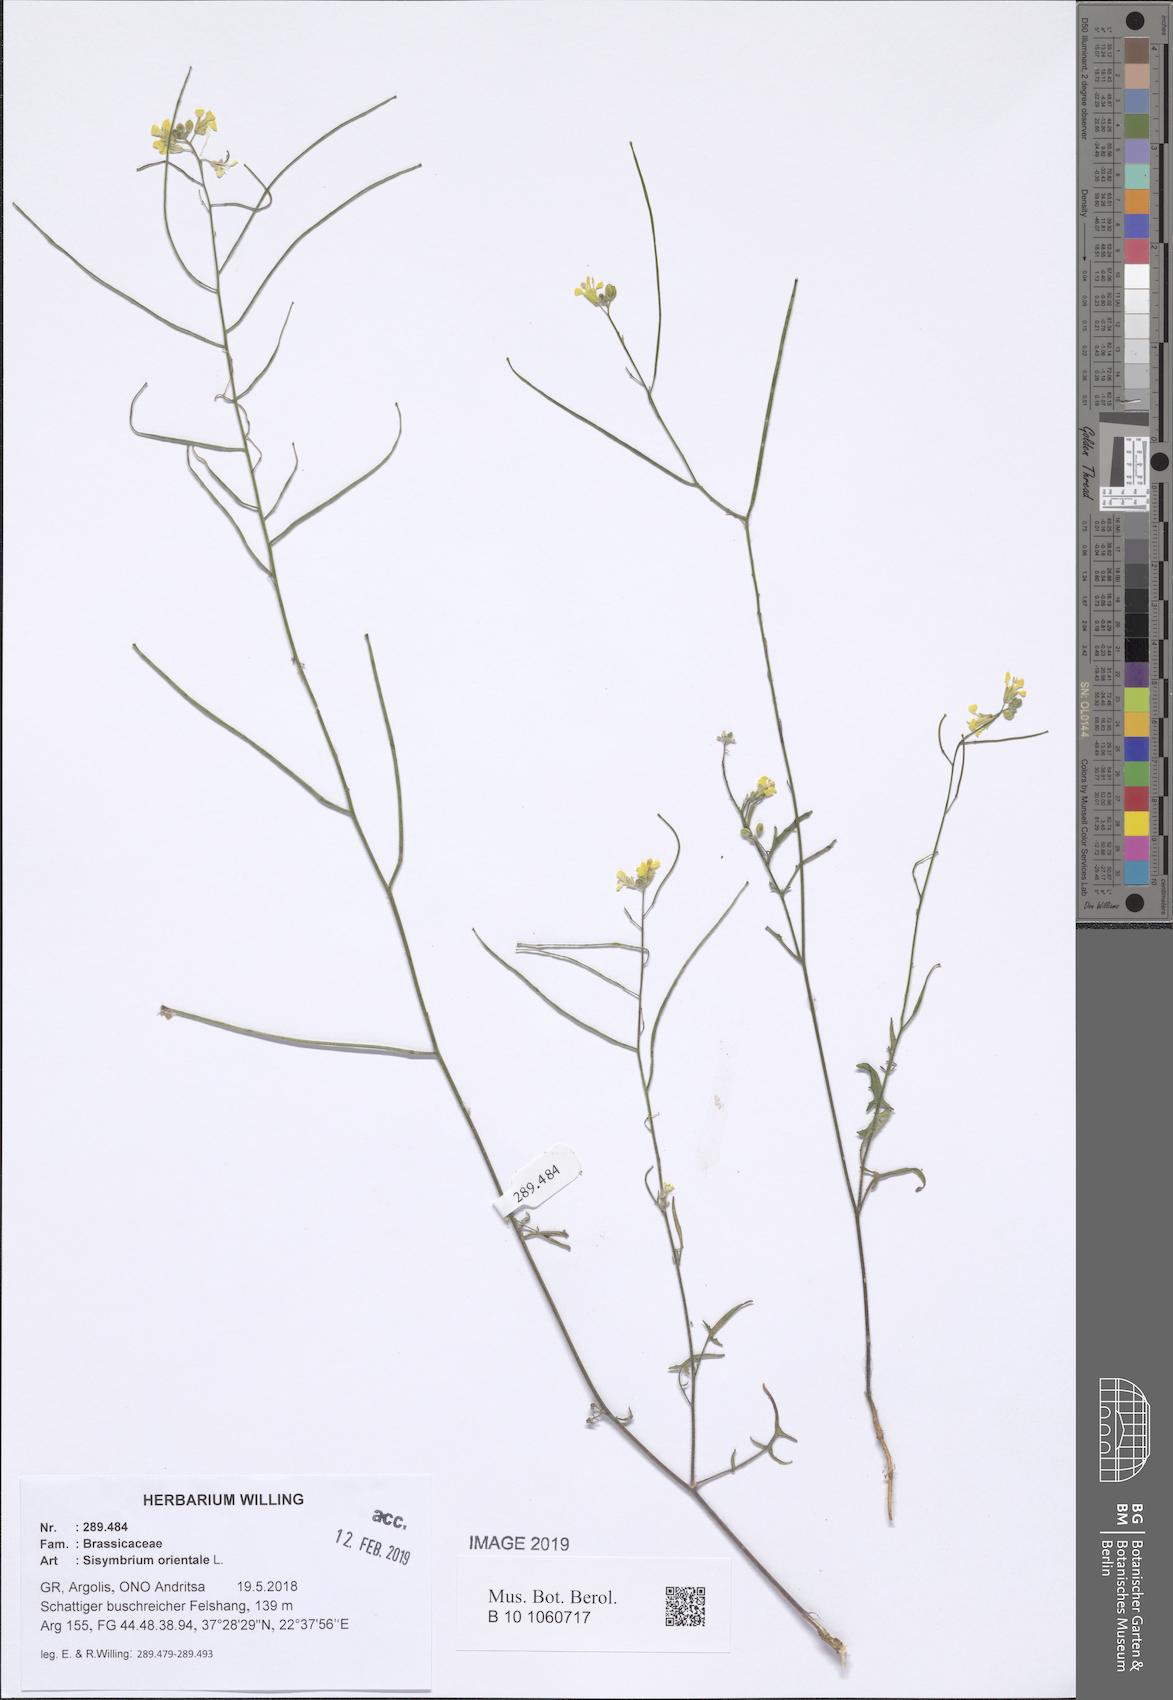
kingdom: Plantae
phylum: Tracheophyta
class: Magnoliopsida
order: Brassicales
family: Brassicaceae
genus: Sisymbrium
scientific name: Sisymbrium orientale
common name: Eastern rocket
